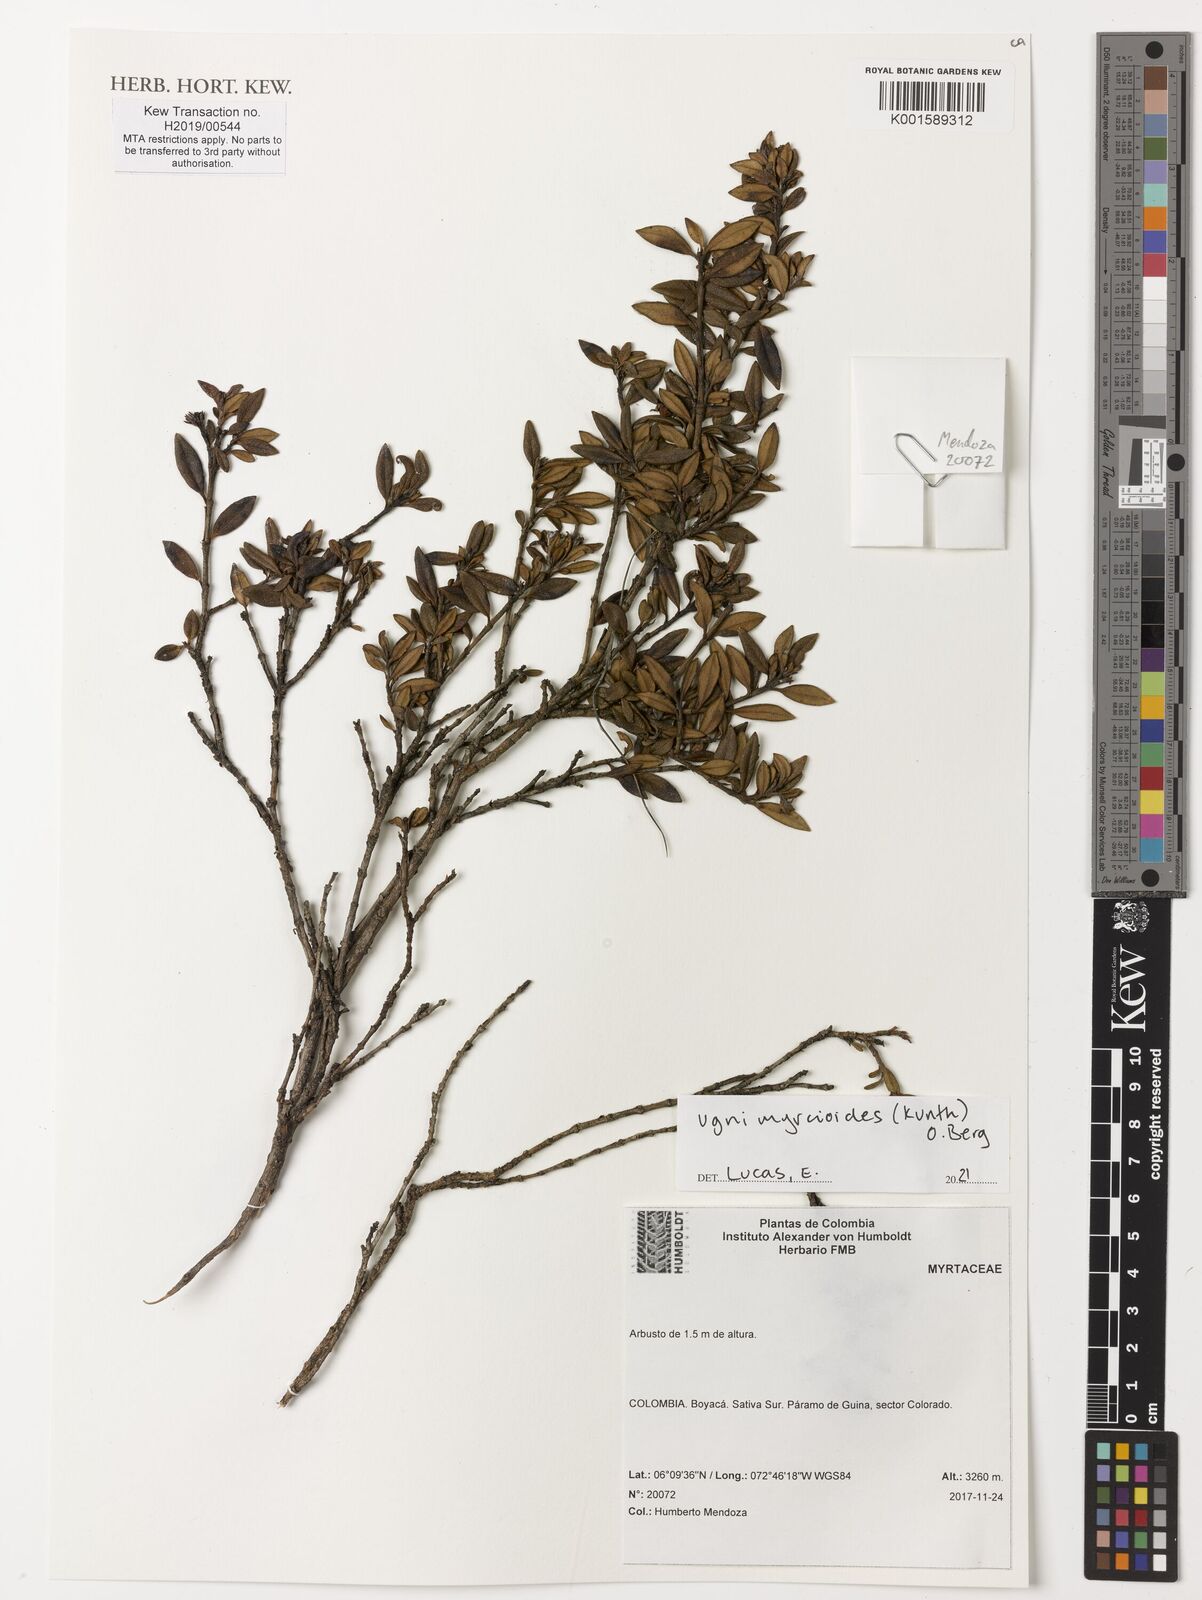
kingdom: Plantae
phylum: Tracheophyta
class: Magnoliopsida
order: Myrtales
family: Myrtaceae
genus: Ugni
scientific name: Ugni myricoides
